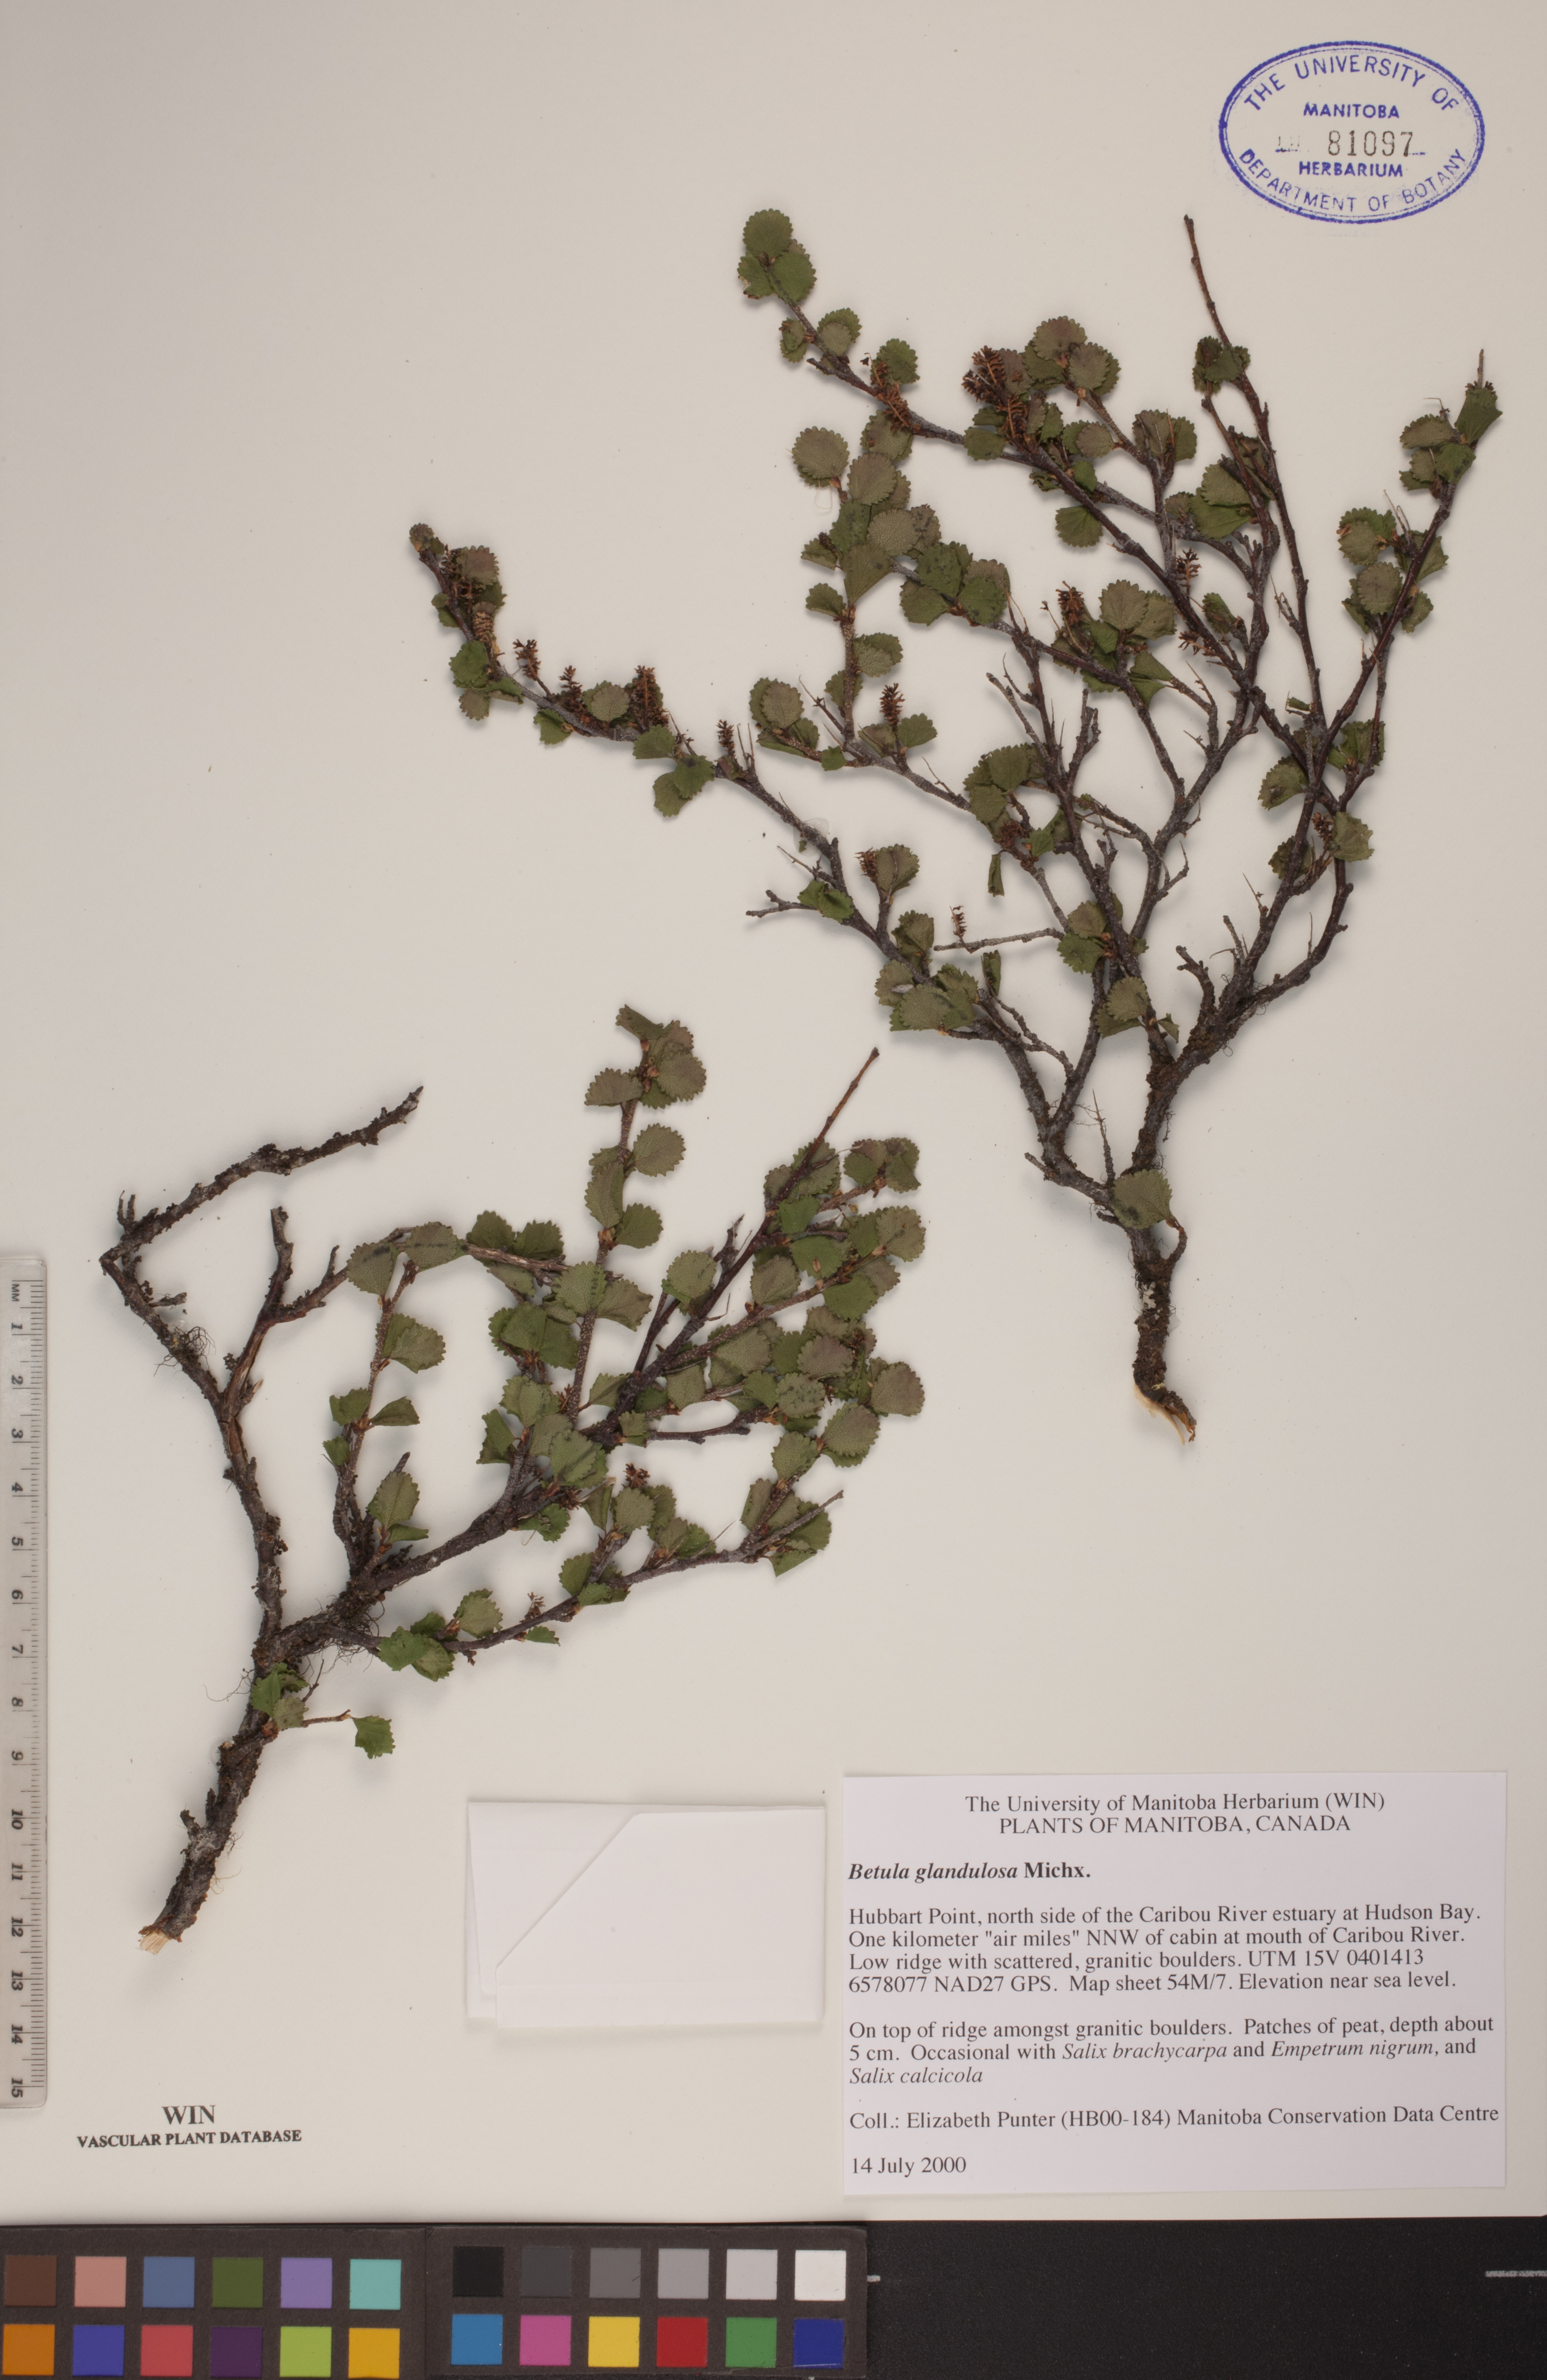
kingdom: Plantae
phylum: Tracheophyta
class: Magnoliopsida
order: Fagales
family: Betulaceae
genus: Betula
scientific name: Betula glandulosa
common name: Dwarf birch
